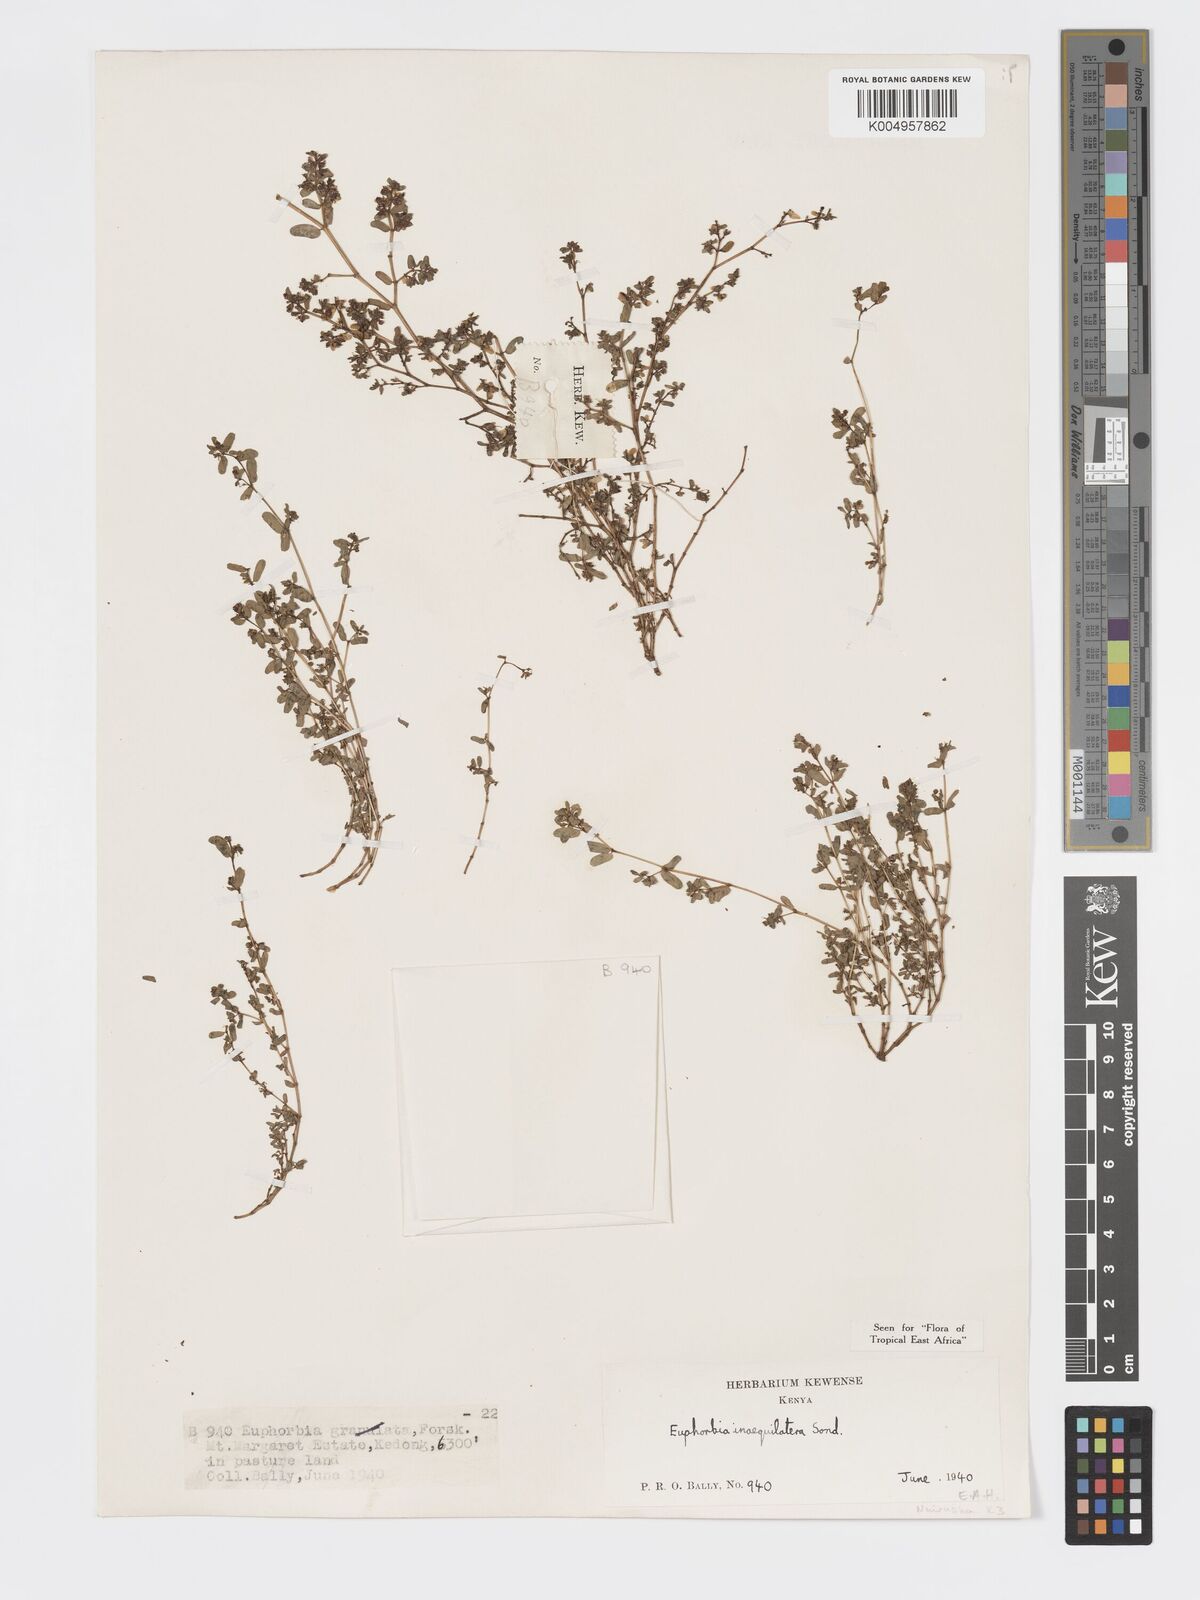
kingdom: Plantae
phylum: Tracheophyta
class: Magnoliopsida
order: Malpighiales
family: Euphorbiaceae
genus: Euphorbia
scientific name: Euphorbia inaequilatera
